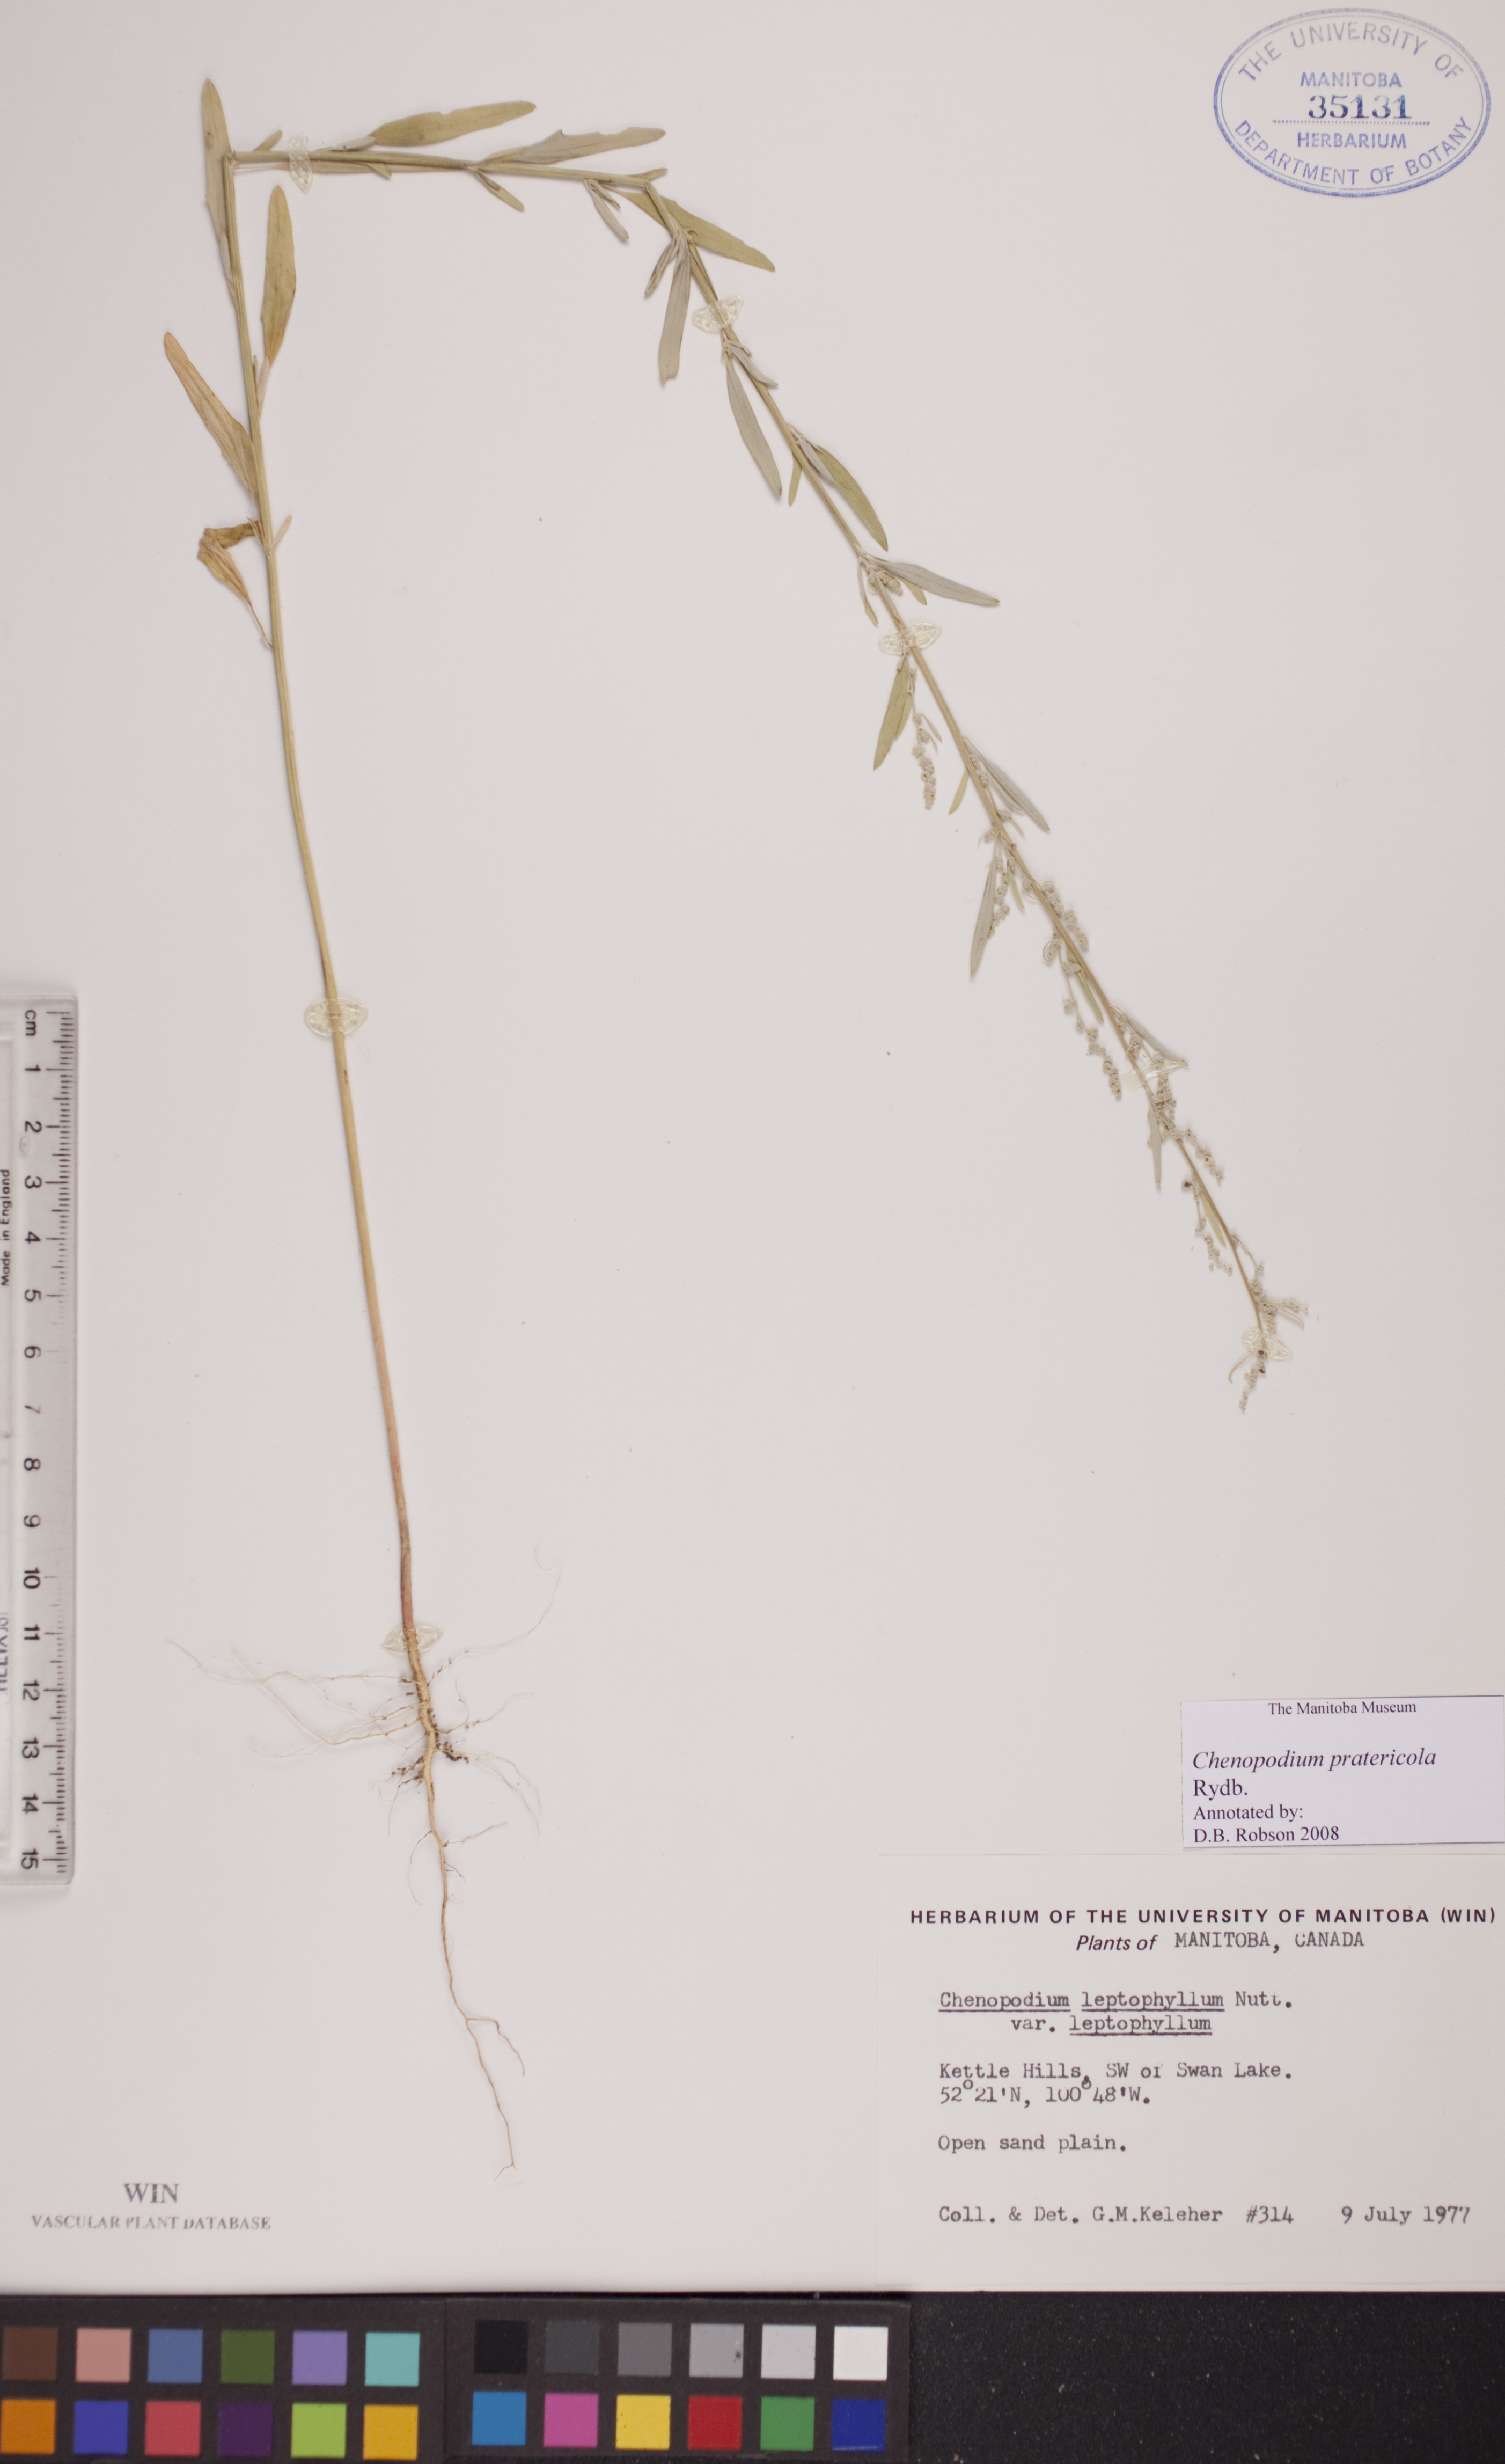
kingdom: Plantae
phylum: Tracheophyta
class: Magnoliopsida
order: Caryophyllales
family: Amaranthaceae
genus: Chenopodium
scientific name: Chenopodium pratericola
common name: Desert goosefoot
